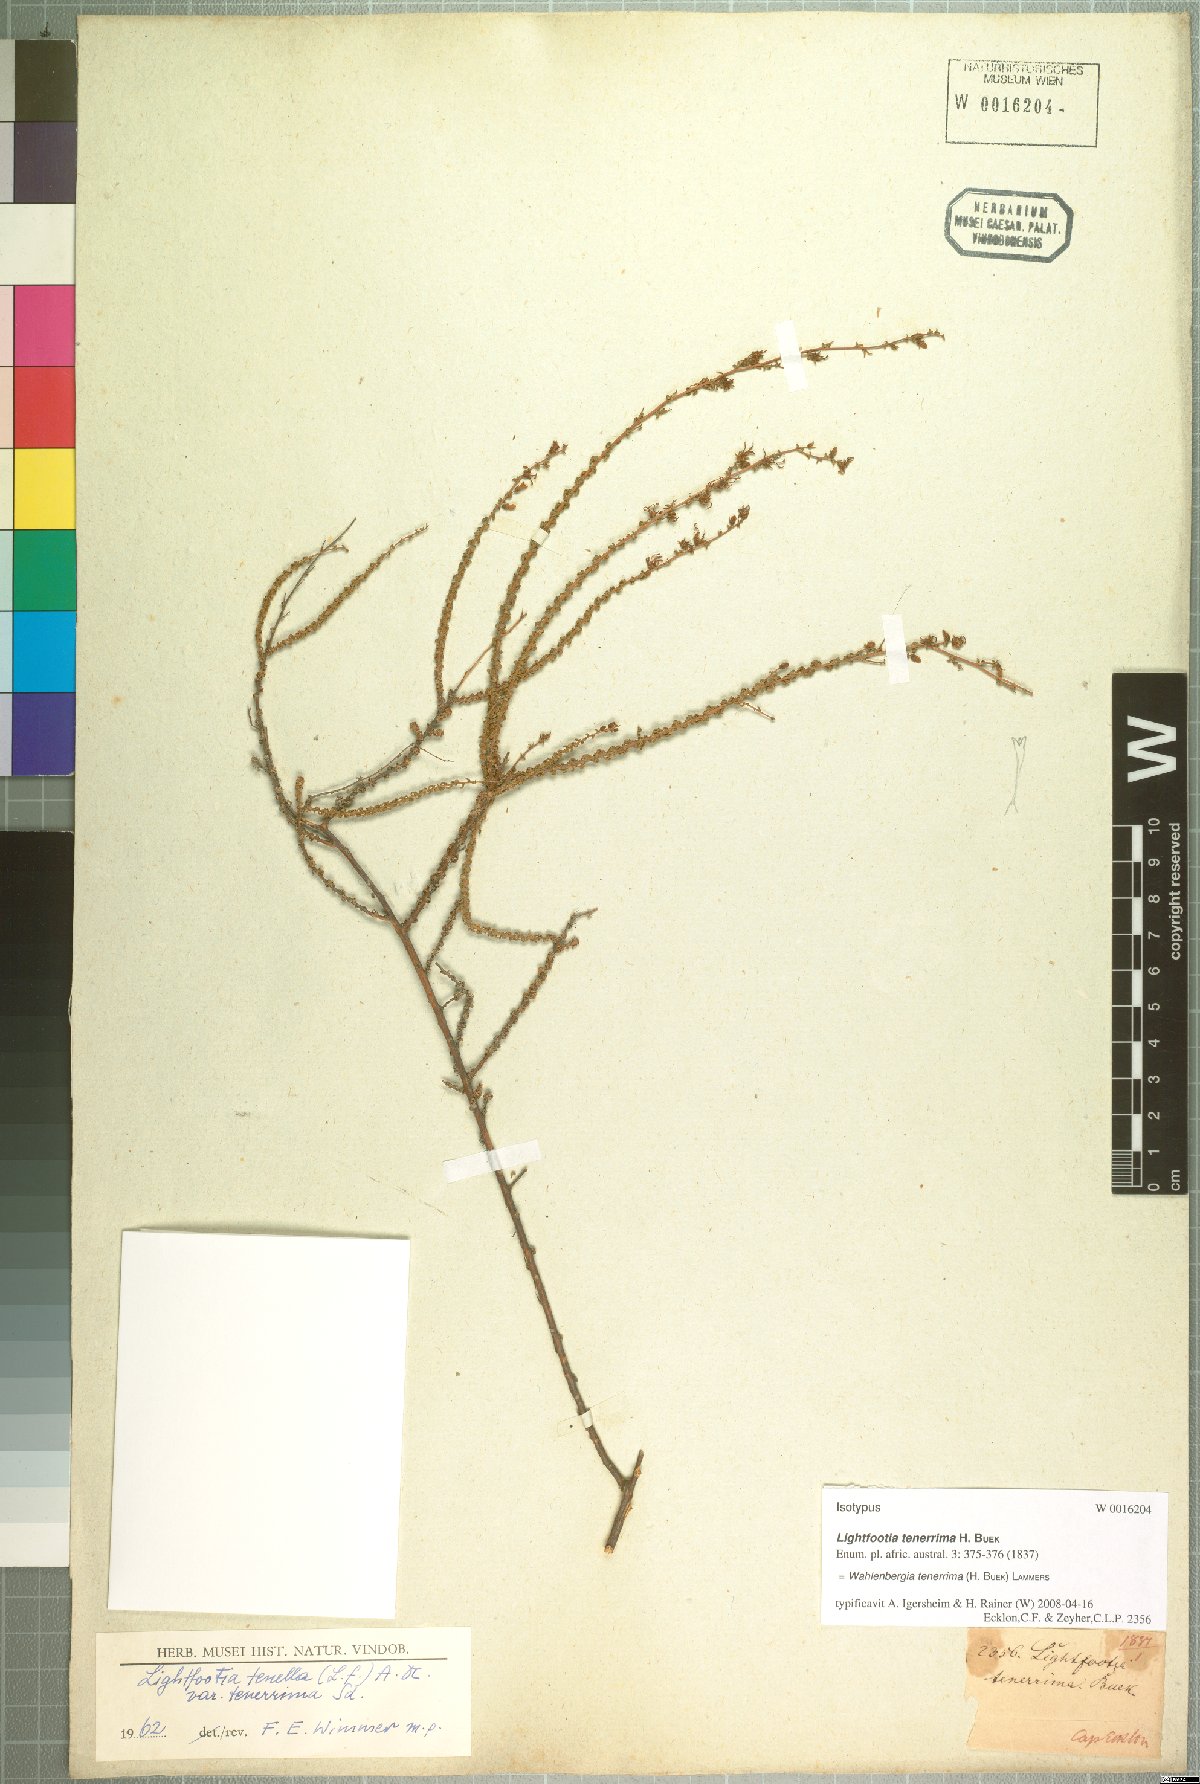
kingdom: Plantae
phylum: Tracheophyta
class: Magnoliopsida
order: Asterales
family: Campanulaceae
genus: Wahlenbergia
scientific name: Wahlenbergia loddigesii
